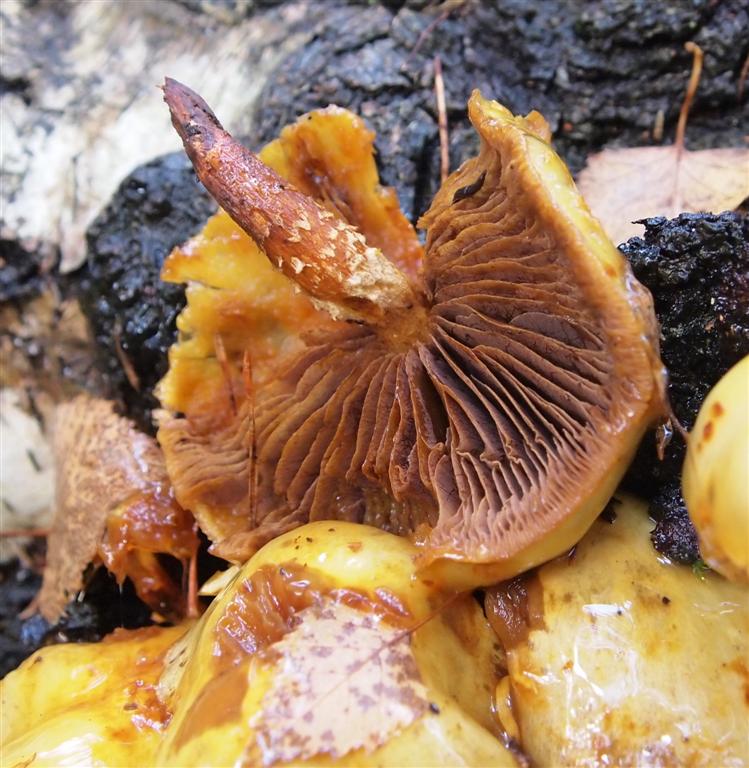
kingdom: Fungi
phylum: Basidiomycota
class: Agaricomycetes
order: Agaricales
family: Hymenogastraceae
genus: Flammula
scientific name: Flammula alnicola
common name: elle-skælhat
